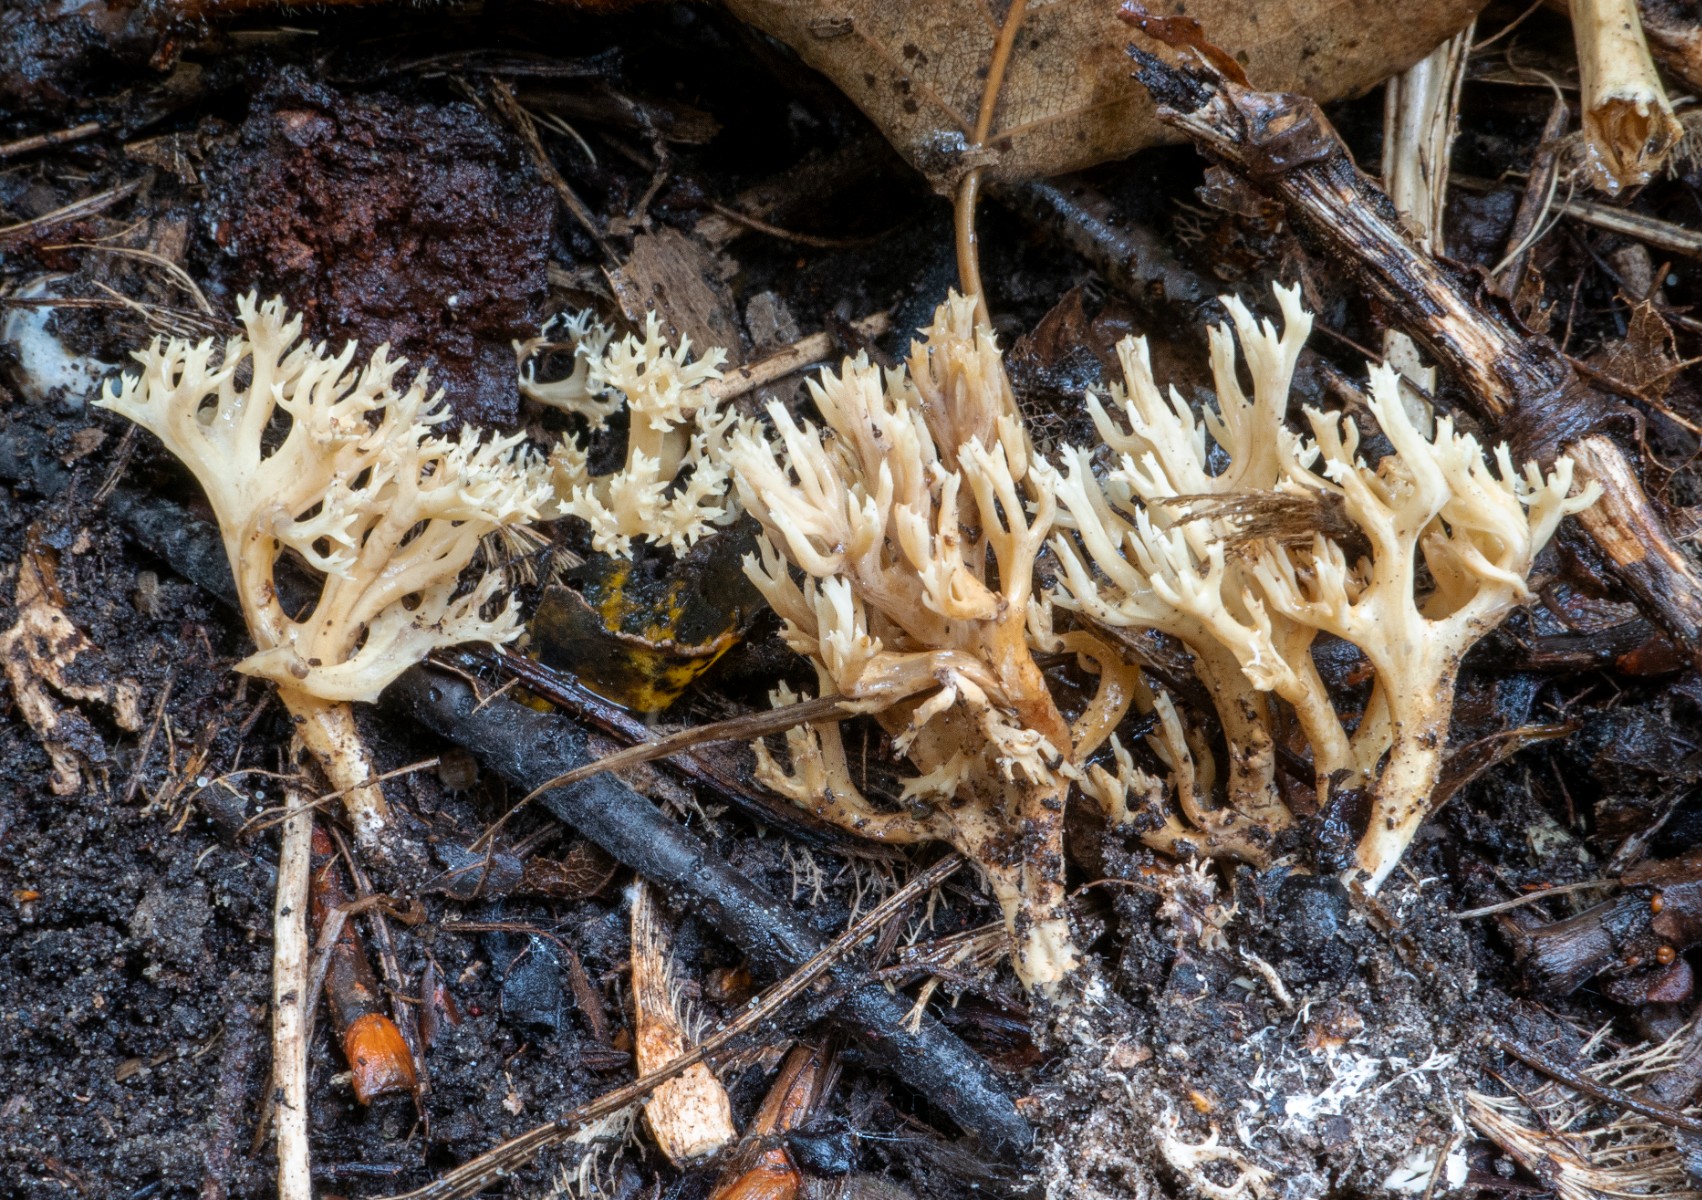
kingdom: Fungi
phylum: Basidiomycota
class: Agaricomycetes
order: Gomphales
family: Gomphaceae
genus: Phaeoclavulina
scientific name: Phaeoclavulina decurrens
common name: krat-koralsvamp
